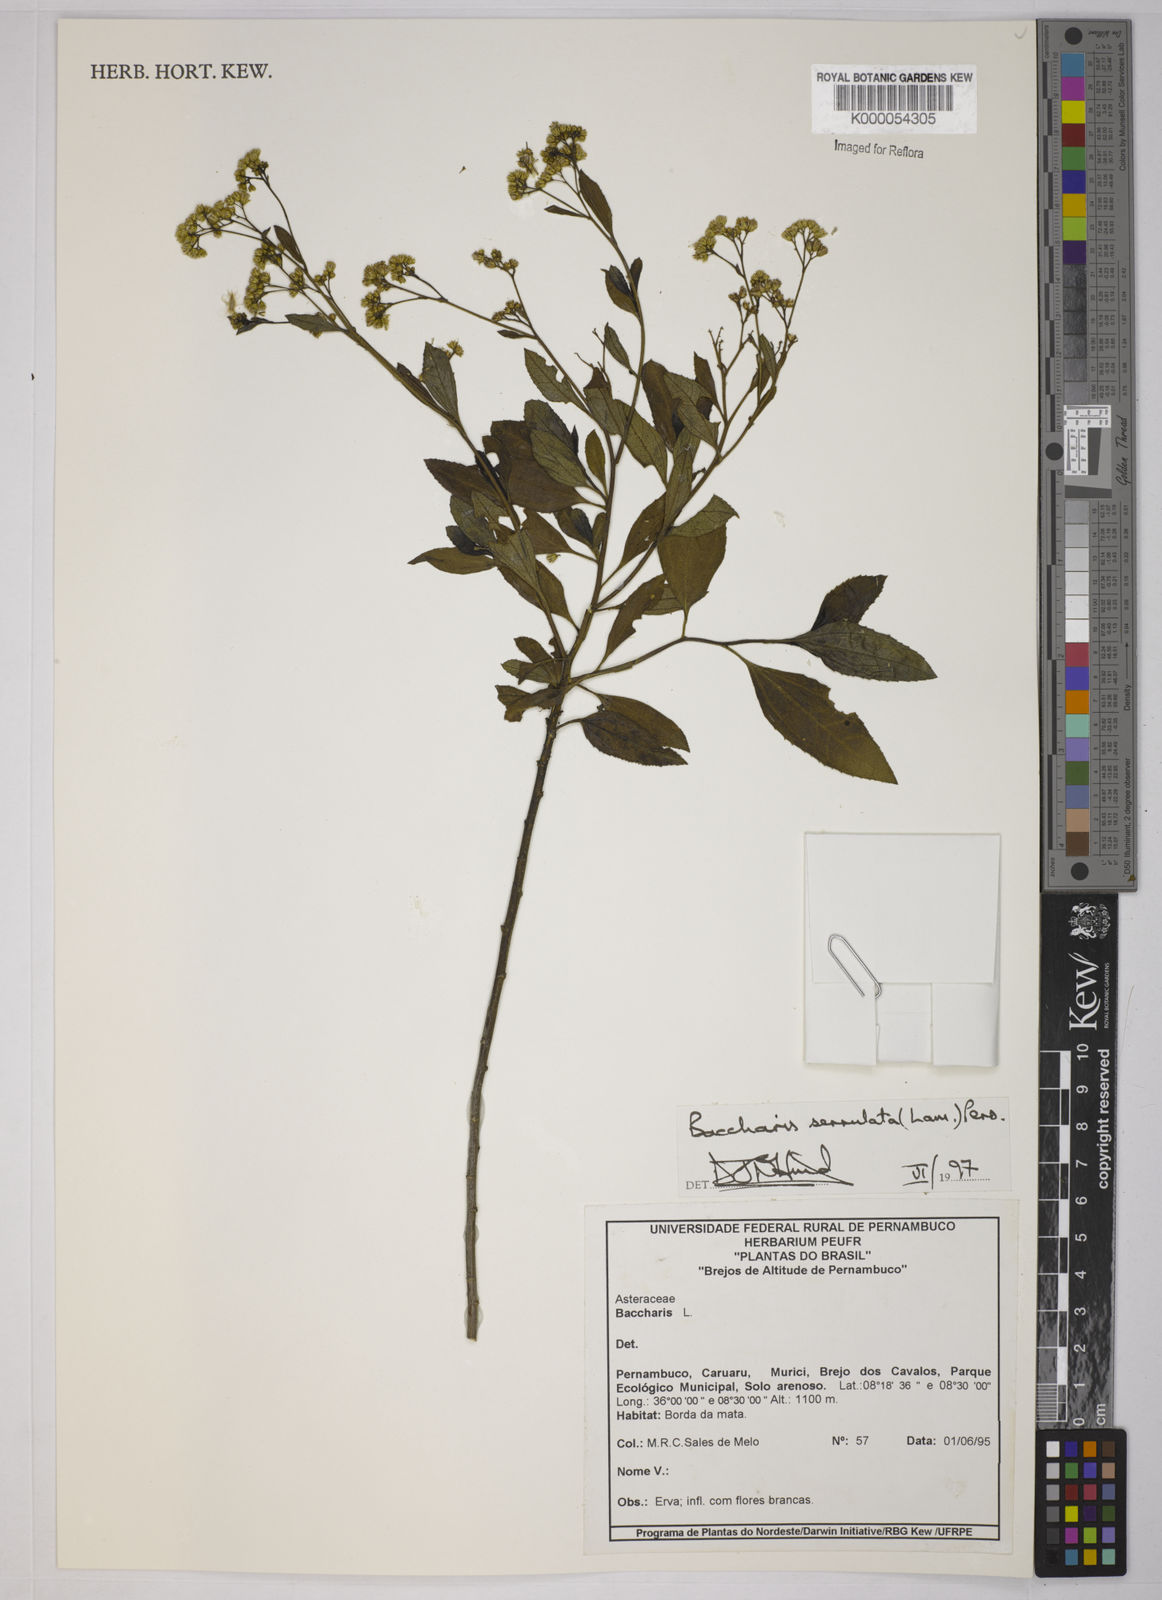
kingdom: Plantae
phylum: Tracheophyta
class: Magnoliopsida
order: Asterales
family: Asteraceae
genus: Baccharis
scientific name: Baccharis serrulata
